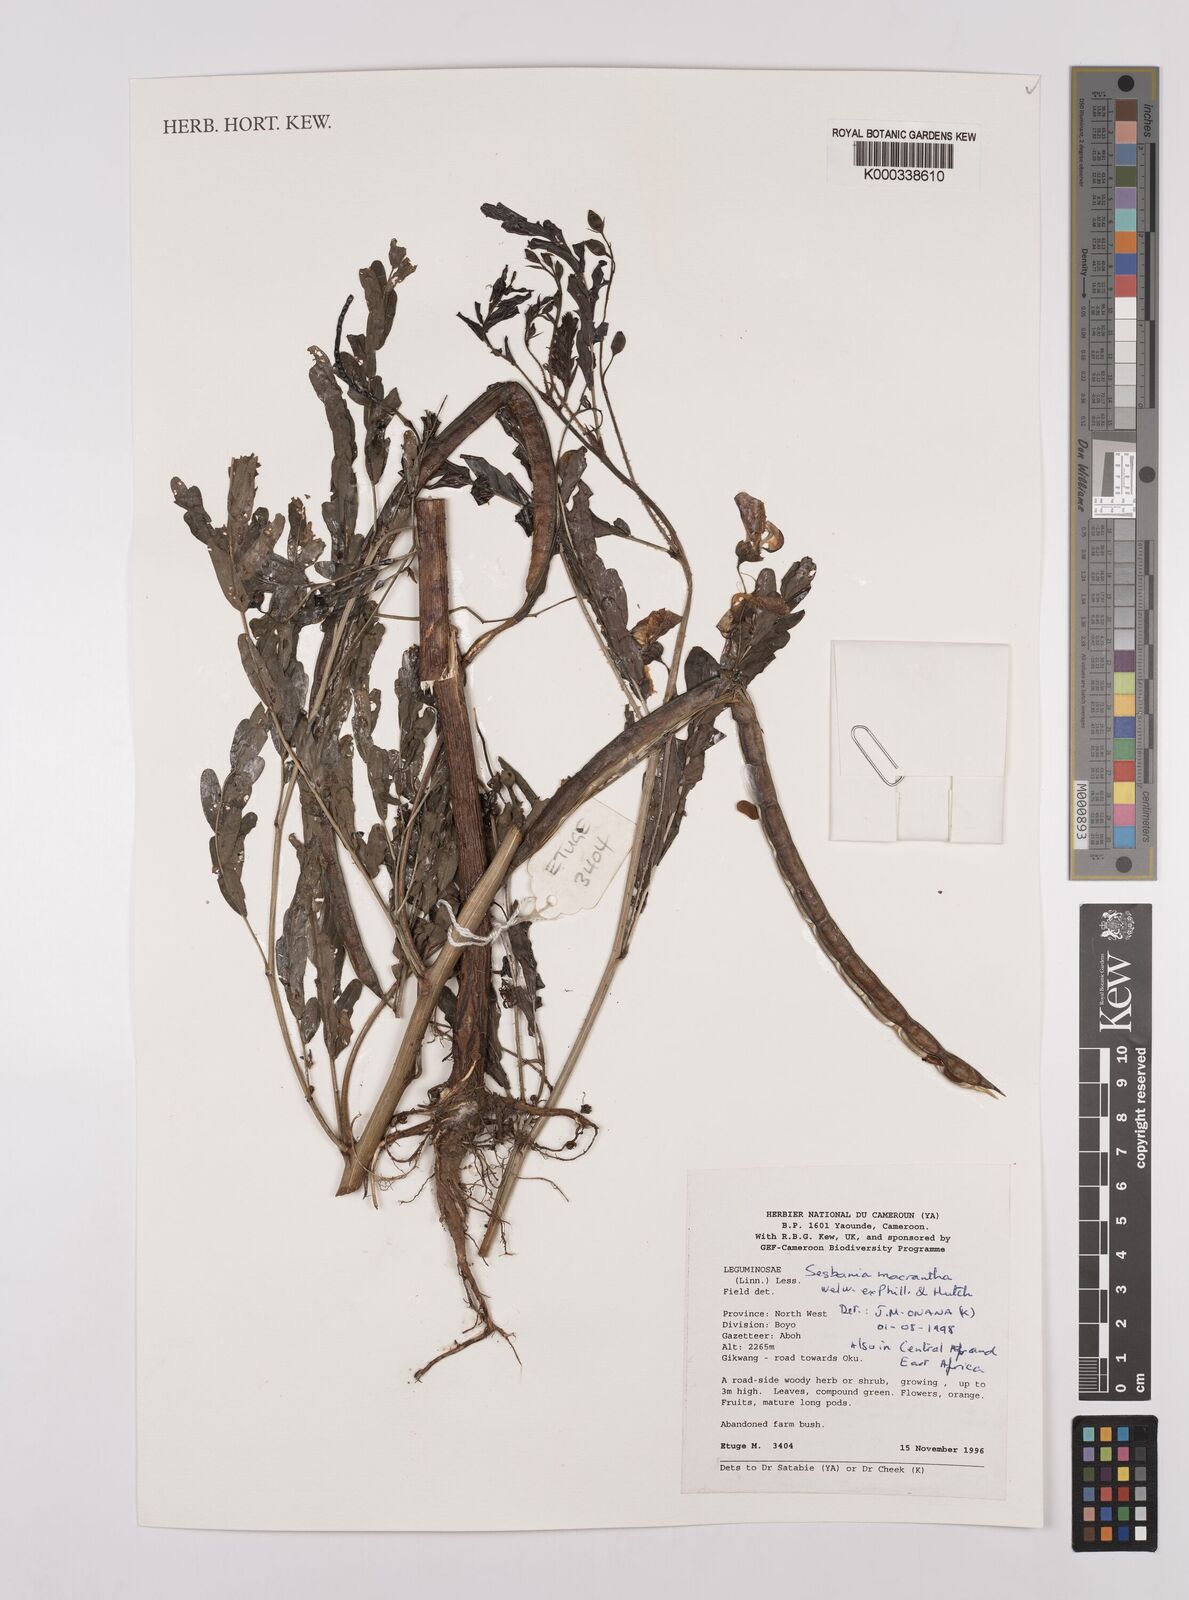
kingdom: Plantae
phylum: Tracheophyta
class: Magnoliopsida
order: Fabales
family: Fabaceae
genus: Sesbania
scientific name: Sesbania macrantha
